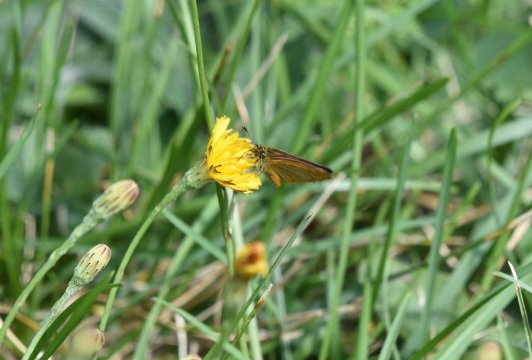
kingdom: Animalia
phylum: Arthropoda
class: Insecta
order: Lepidoptera
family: Hesperiidae
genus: Ancyloxypha
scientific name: Ancyloxypha numitor
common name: Least Skipper
